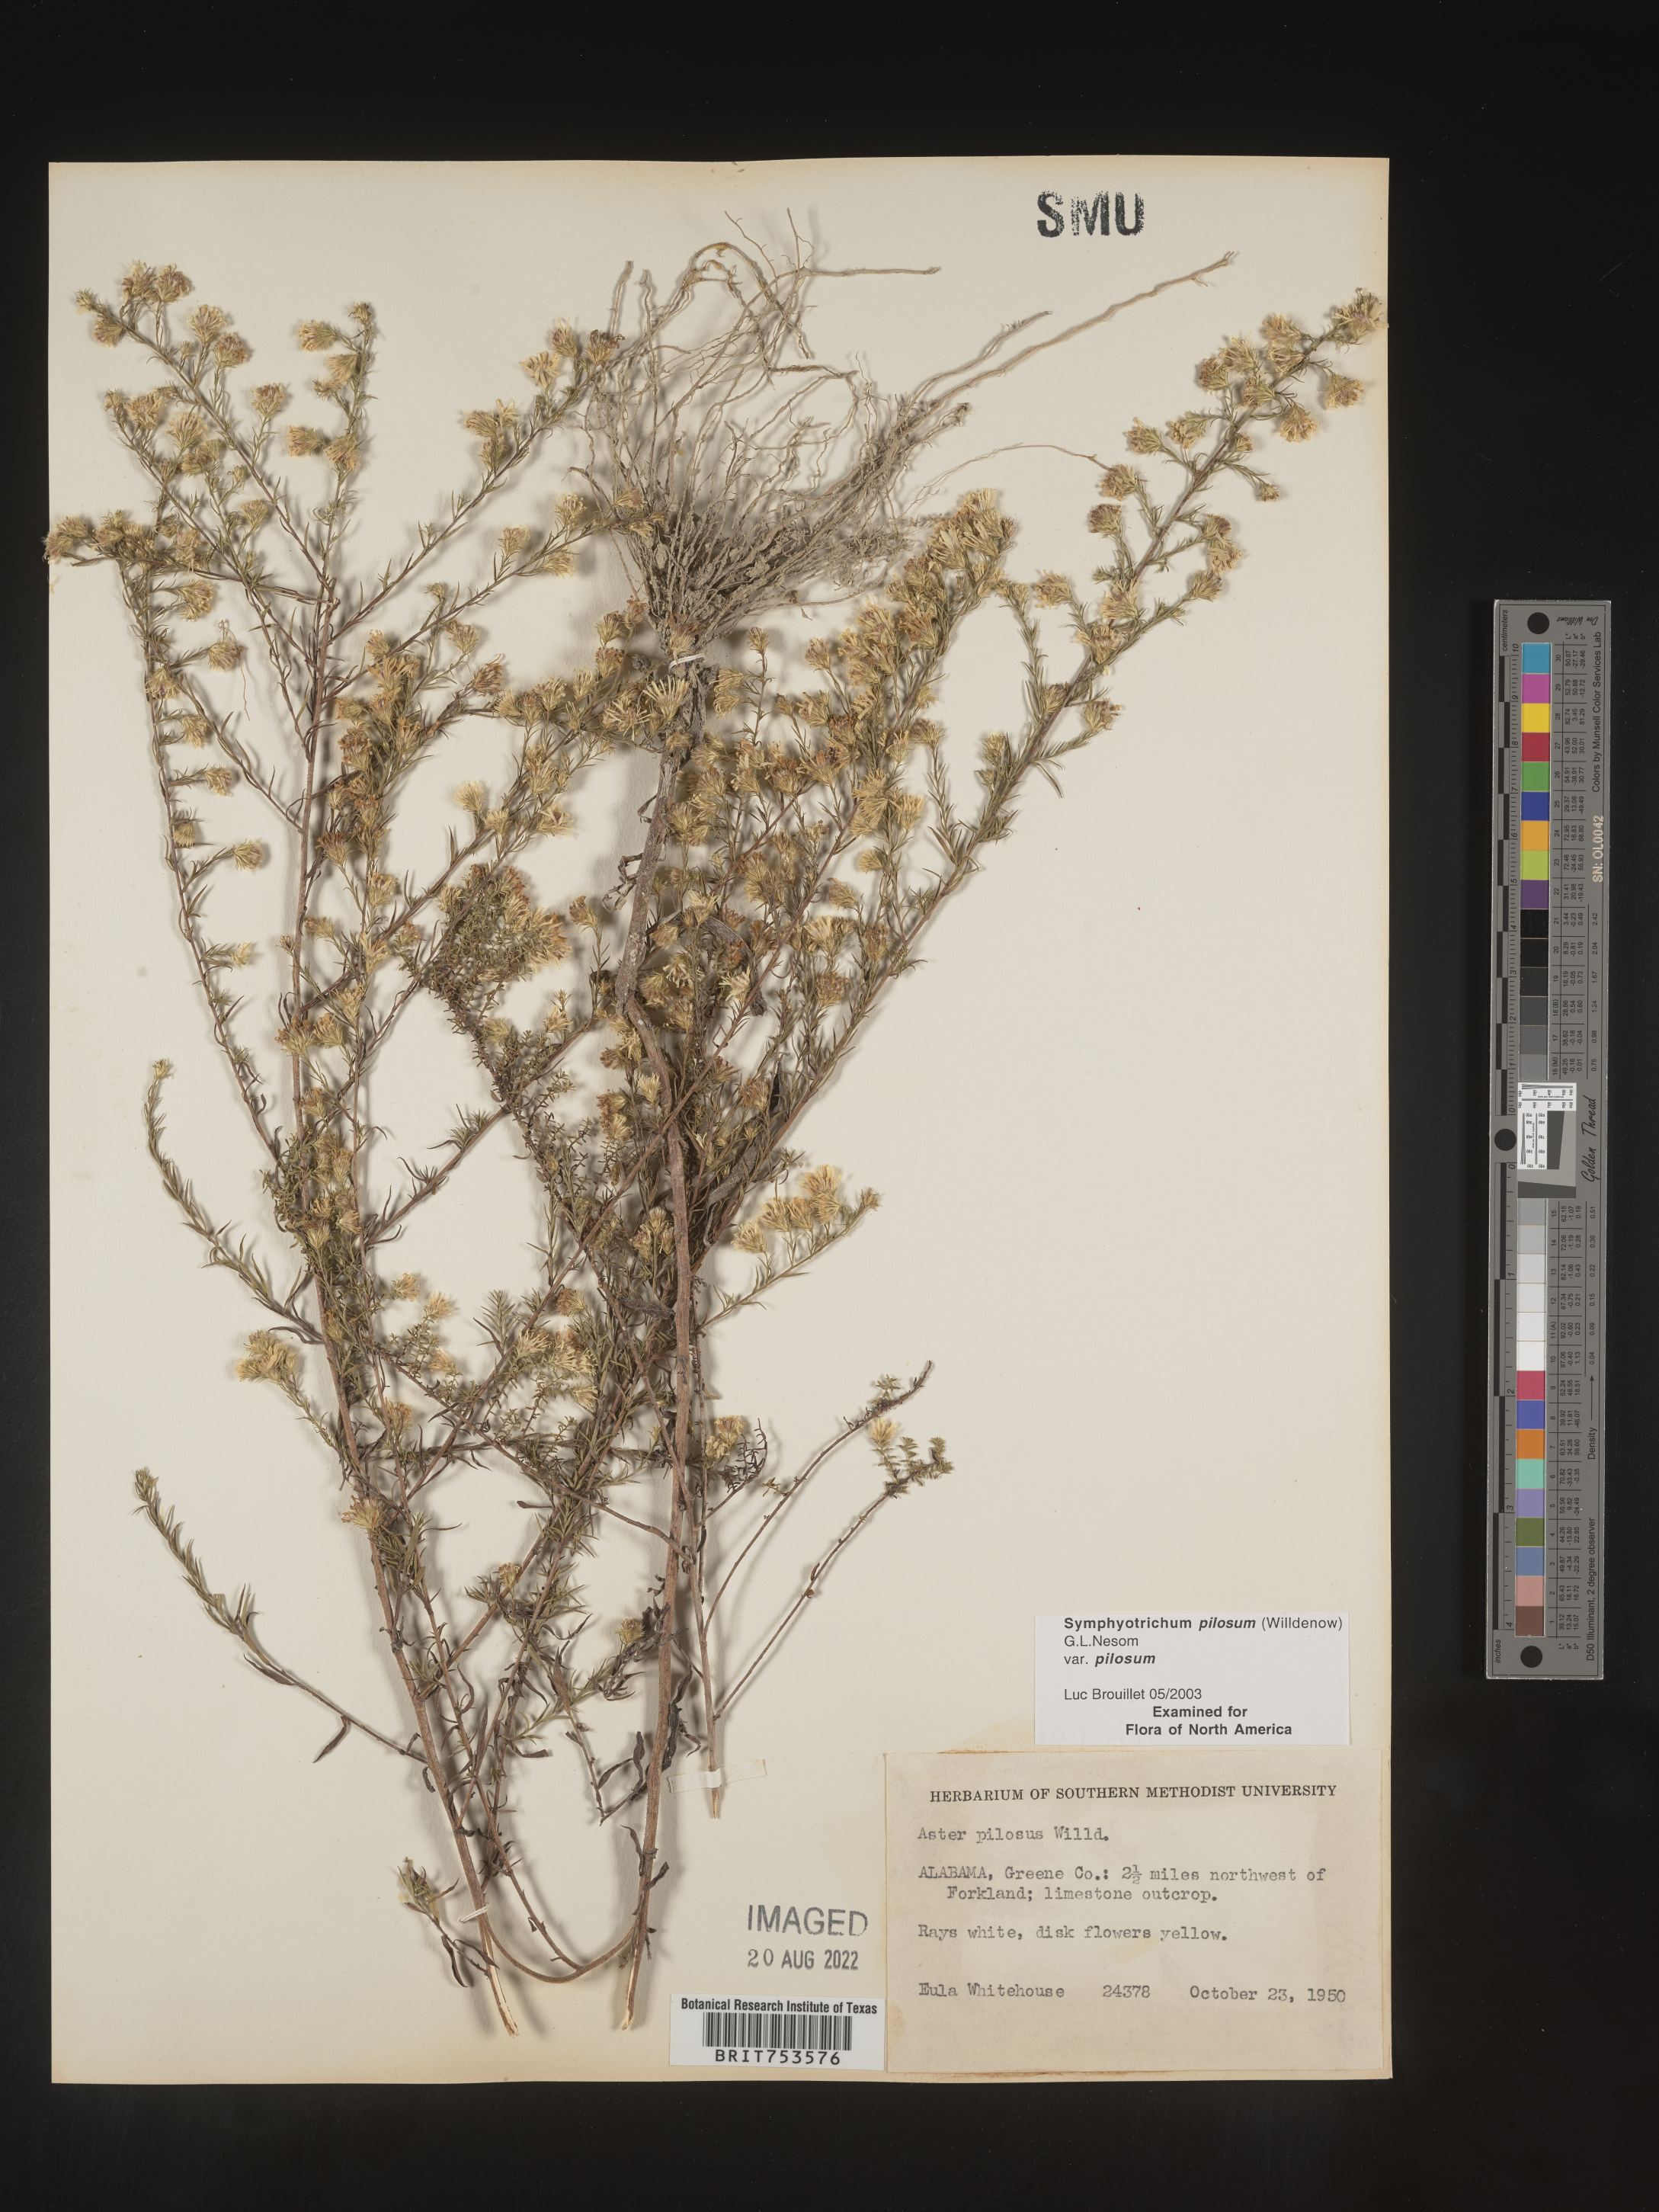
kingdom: Plantae
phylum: Tracheophyta
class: Magnoliopsida
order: Asterales
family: Asteraceae
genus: Symphyotrichum
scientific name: Symphyotrichum pilosum
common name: Awl aster
